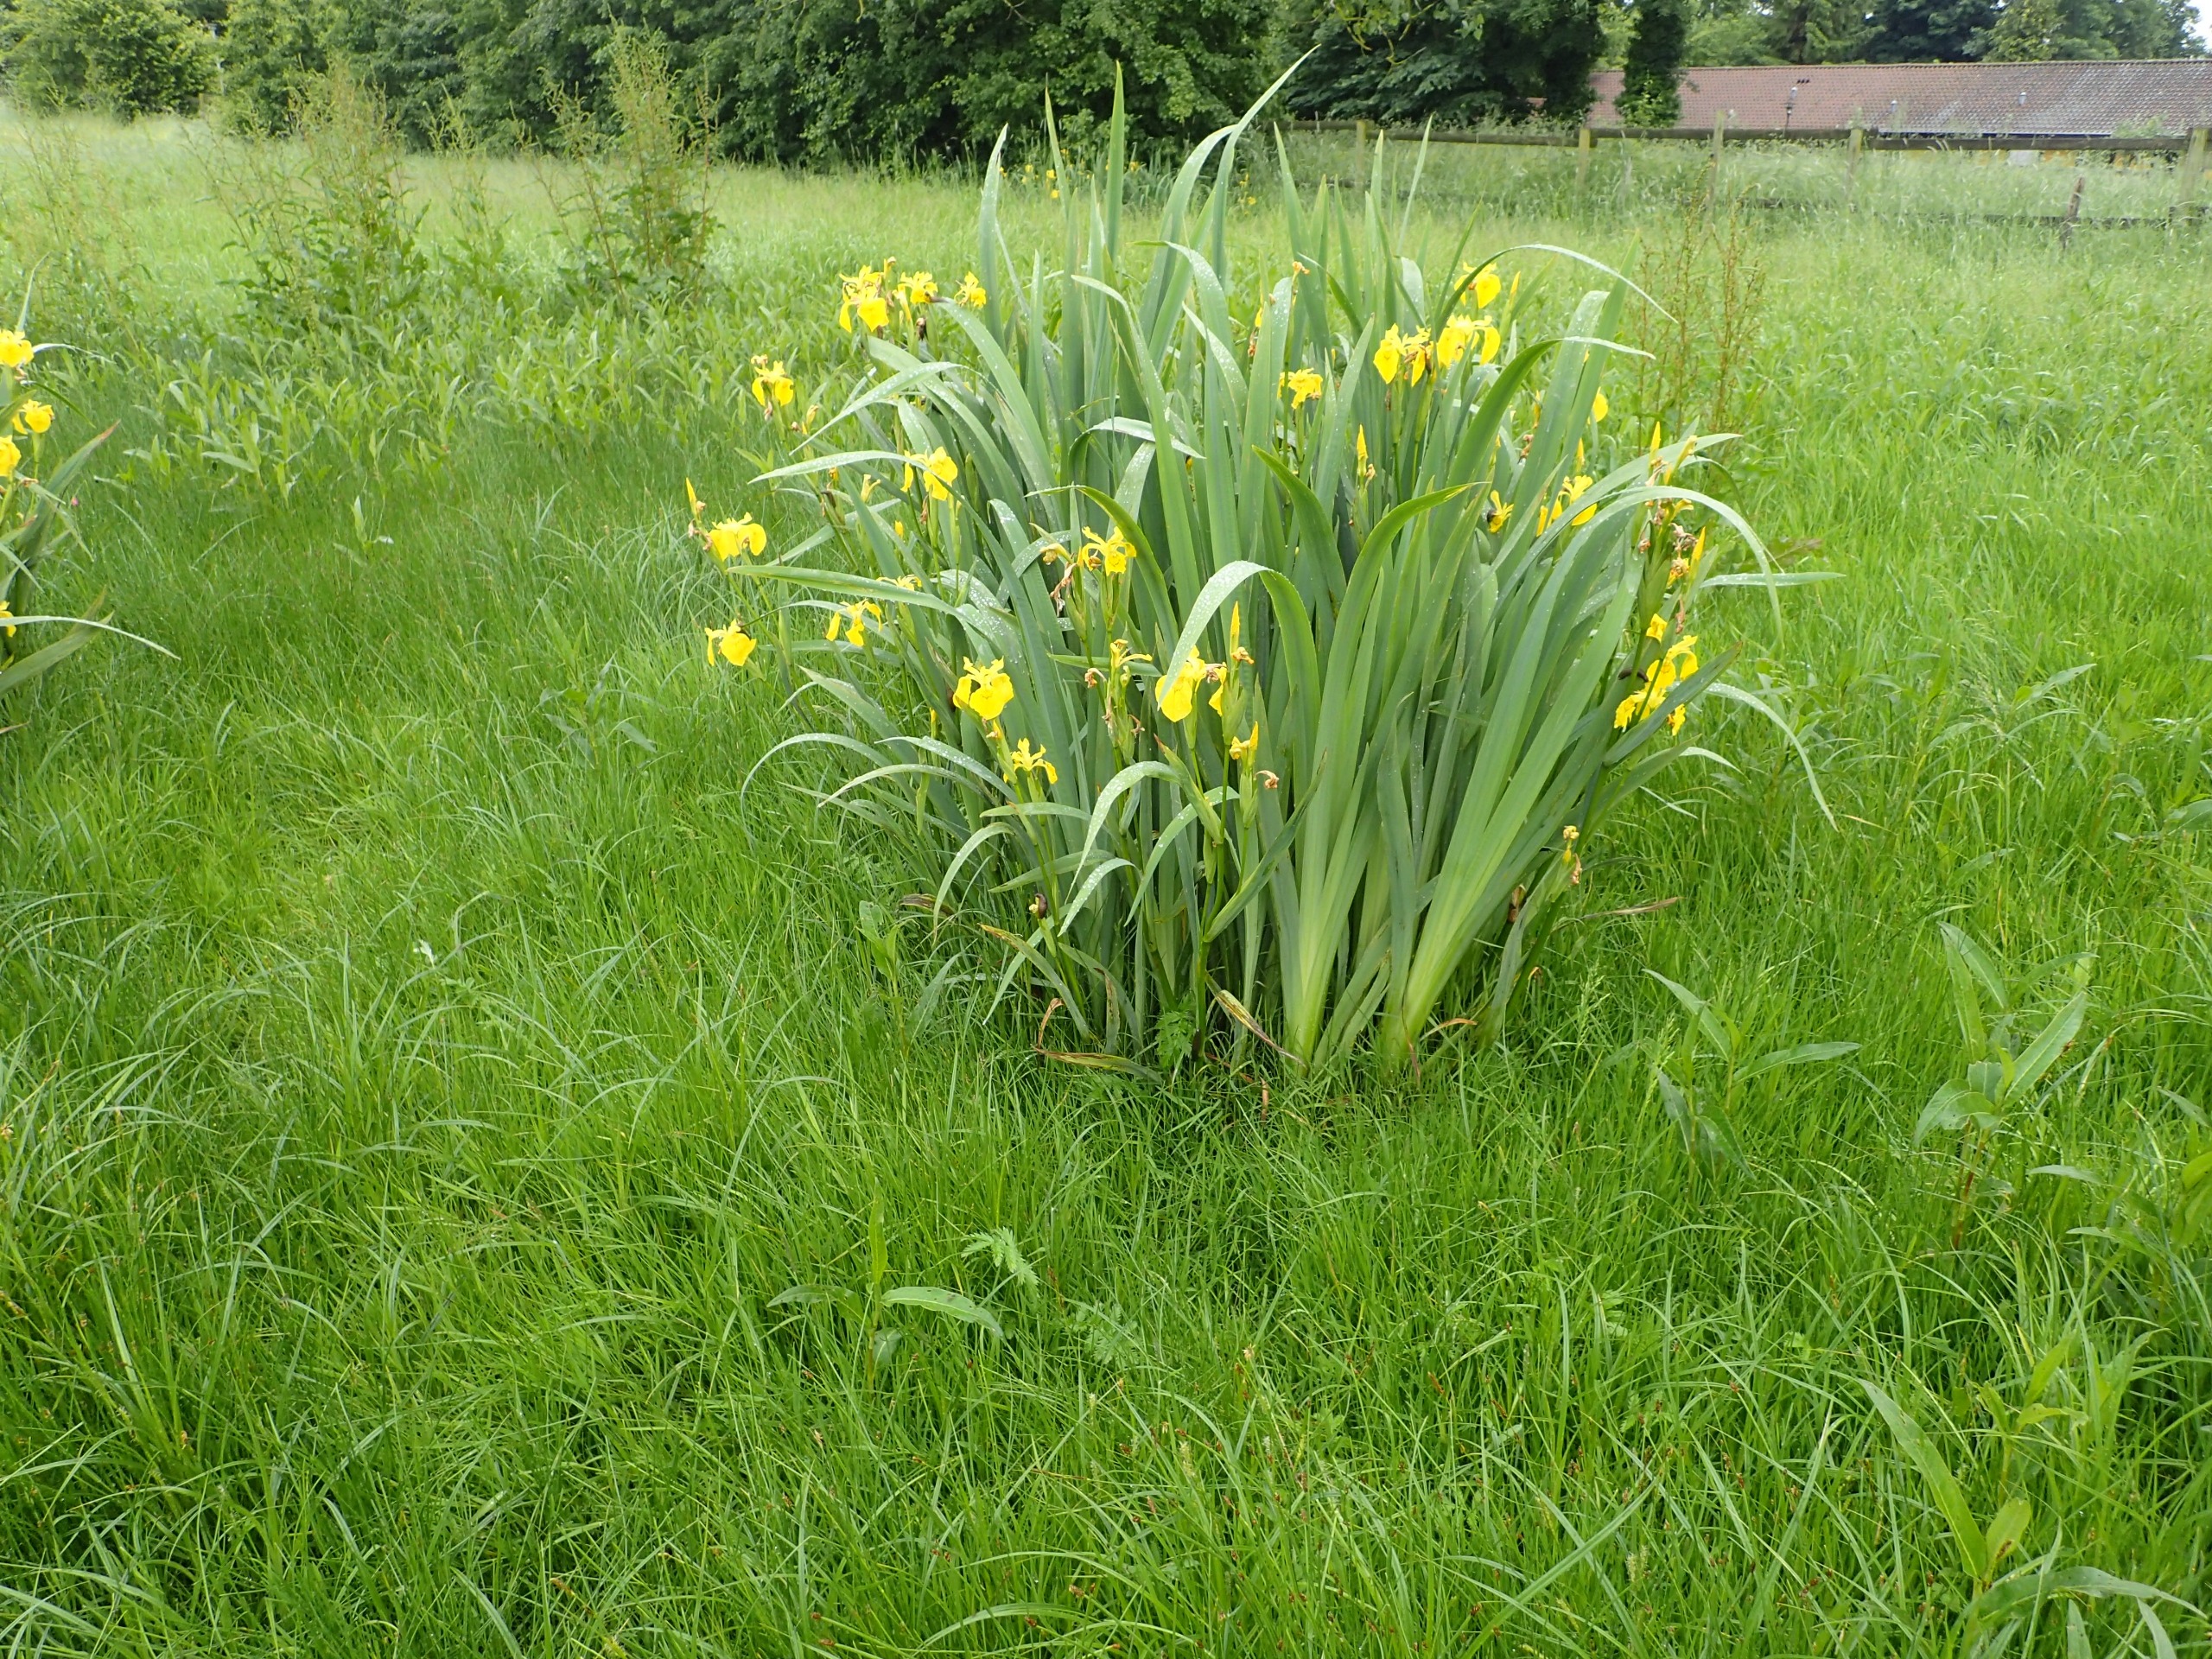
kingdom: Plantae
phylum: Tracheophyta
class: Liliopsida
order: Asparagales
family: Iridaceae
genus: Iris
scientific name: Iris pseudacorus
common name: Gul iris
